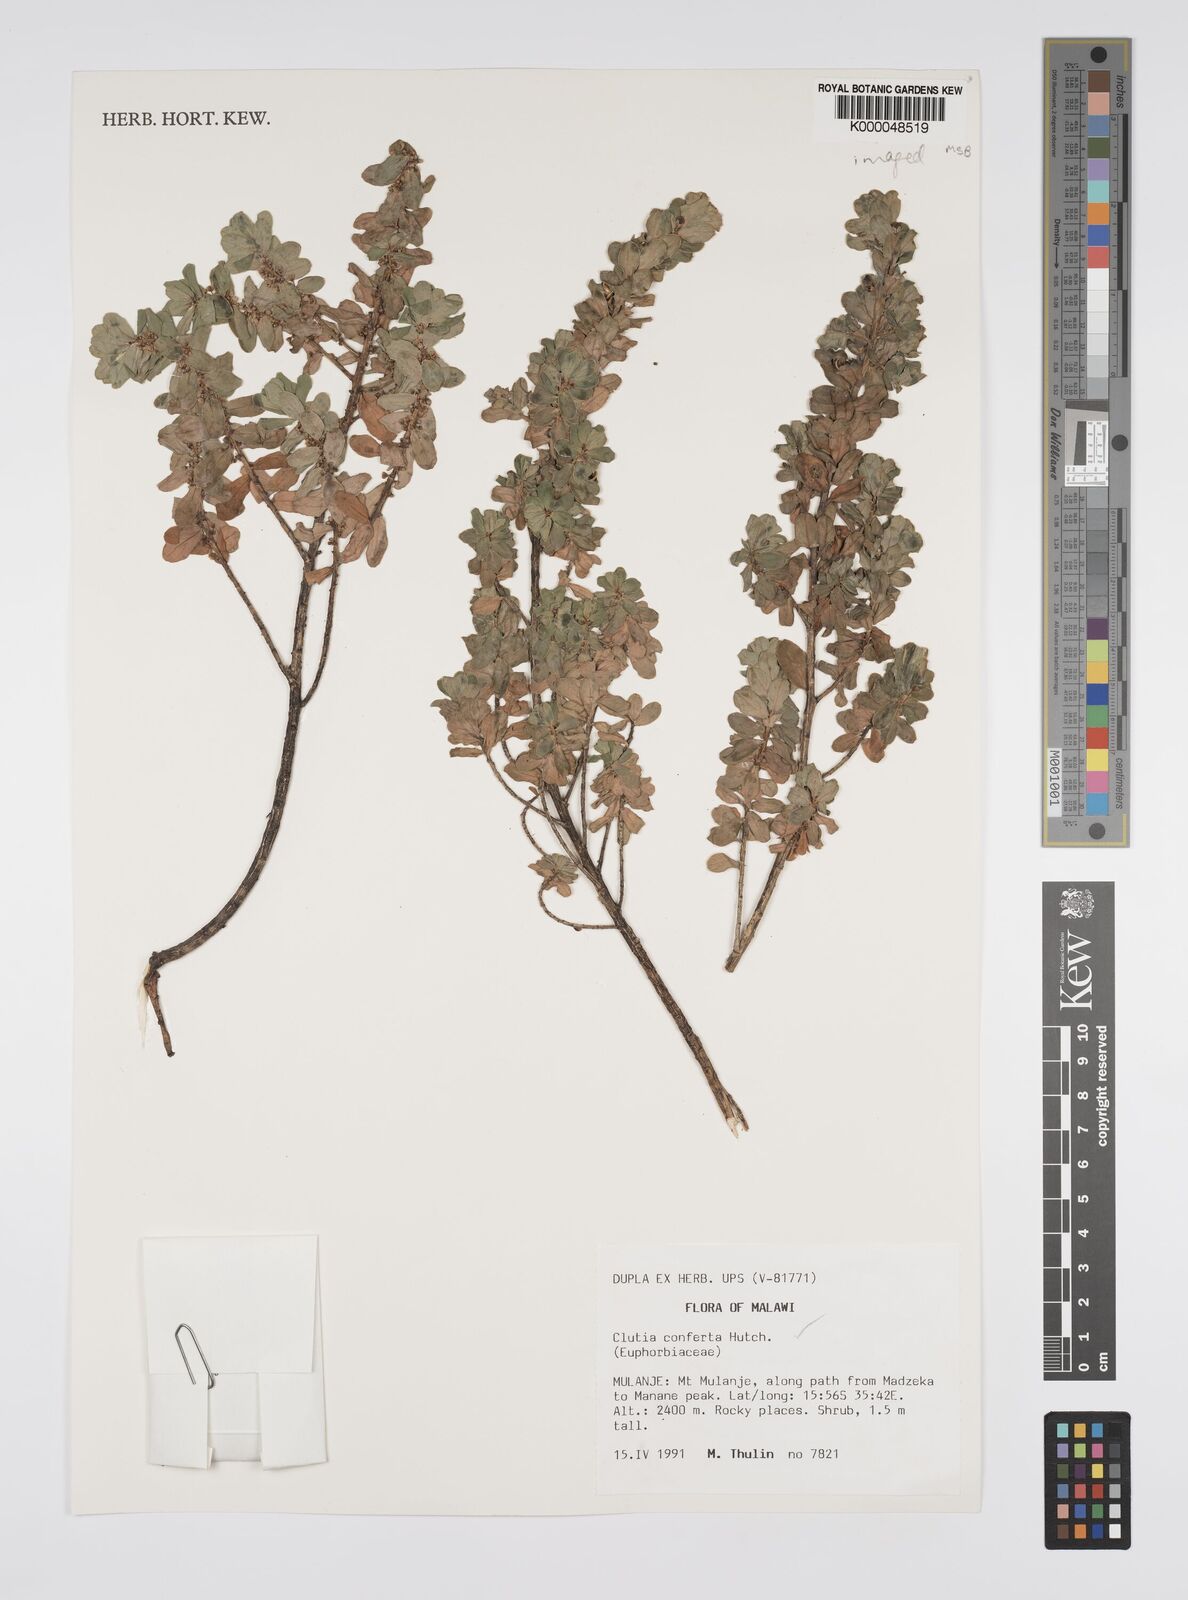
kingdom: Plantae
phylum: Tracheophyta
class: Magnoliopsida
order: Malpighiales
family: Peraceae
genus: Clutia
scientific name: Clutia conferta
